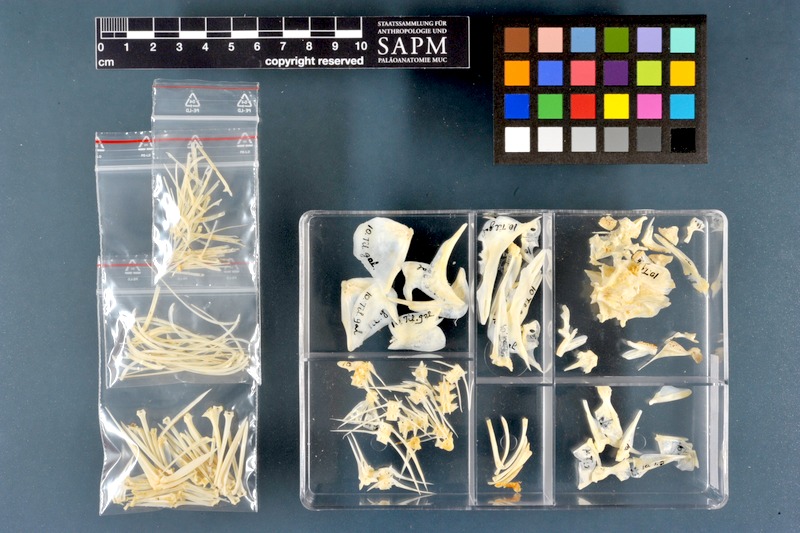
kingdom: Animalia
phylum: Chordata
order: Perciformes
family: Cichlidae
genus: Sarotherodon
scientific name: Sarotherodon galilaeus
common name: Mango tilapia
